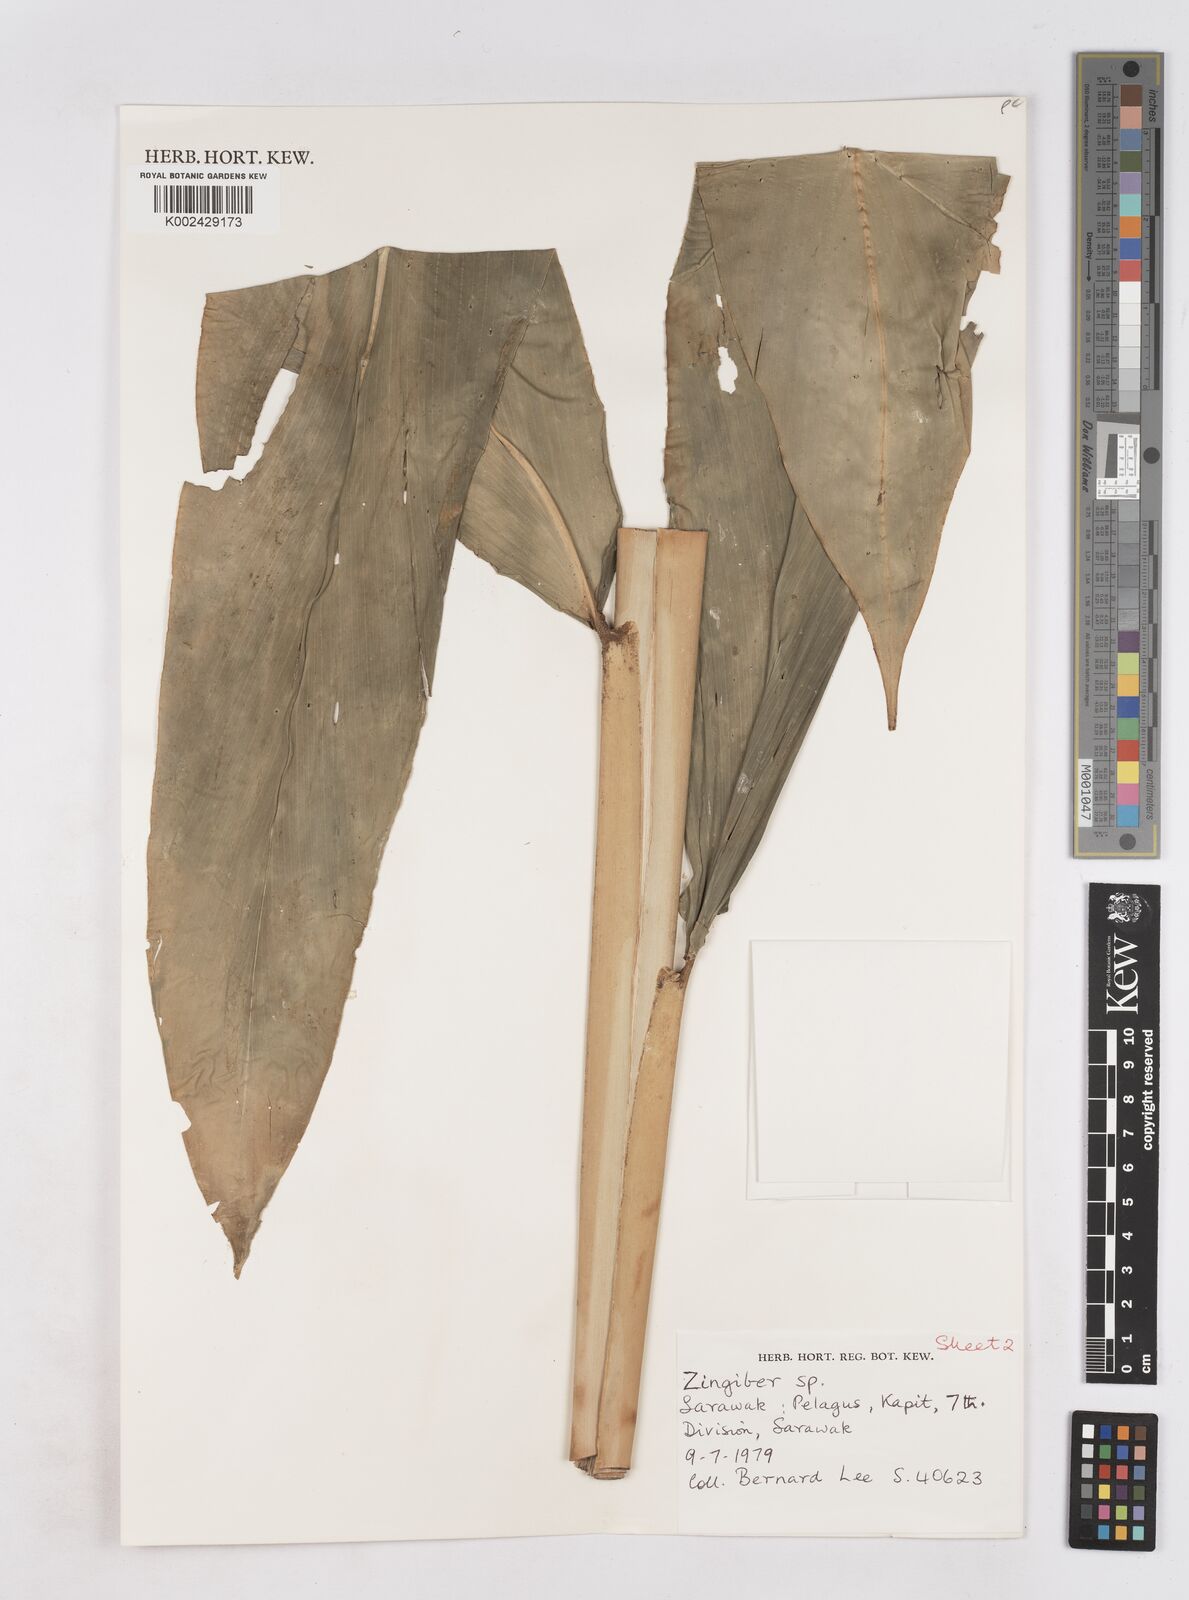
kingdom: Plantae
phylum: Tracheophyta
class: Liliopsida
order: Zingiberales
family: Zingiberaceae
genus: Zingiber
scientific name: Zingiber
